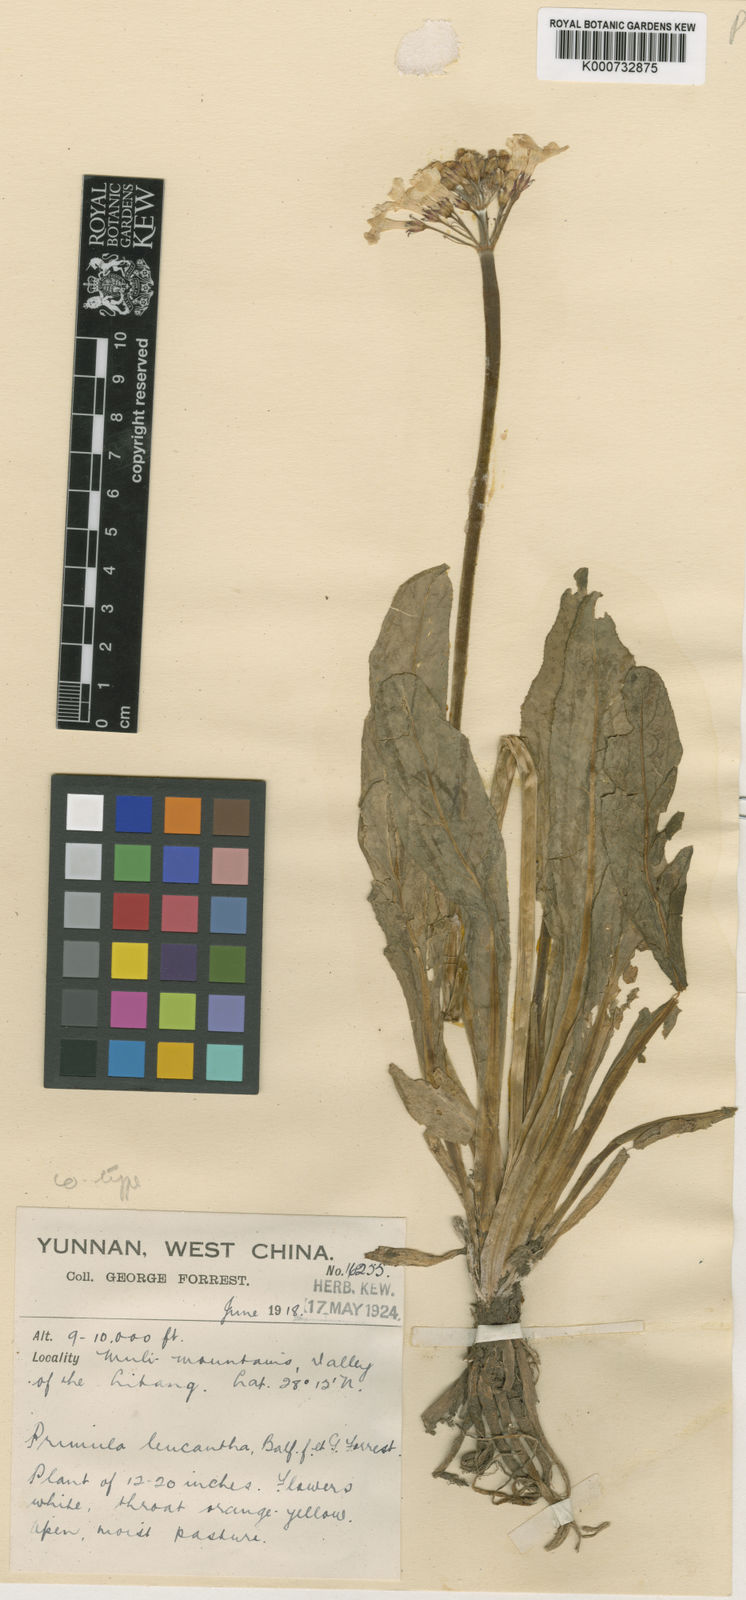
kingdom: Plantae
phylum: Tracheophyta
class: Magnoliopsida
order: Ericales
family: Primulaceae
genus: Primula
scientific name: Primula bulleyana
